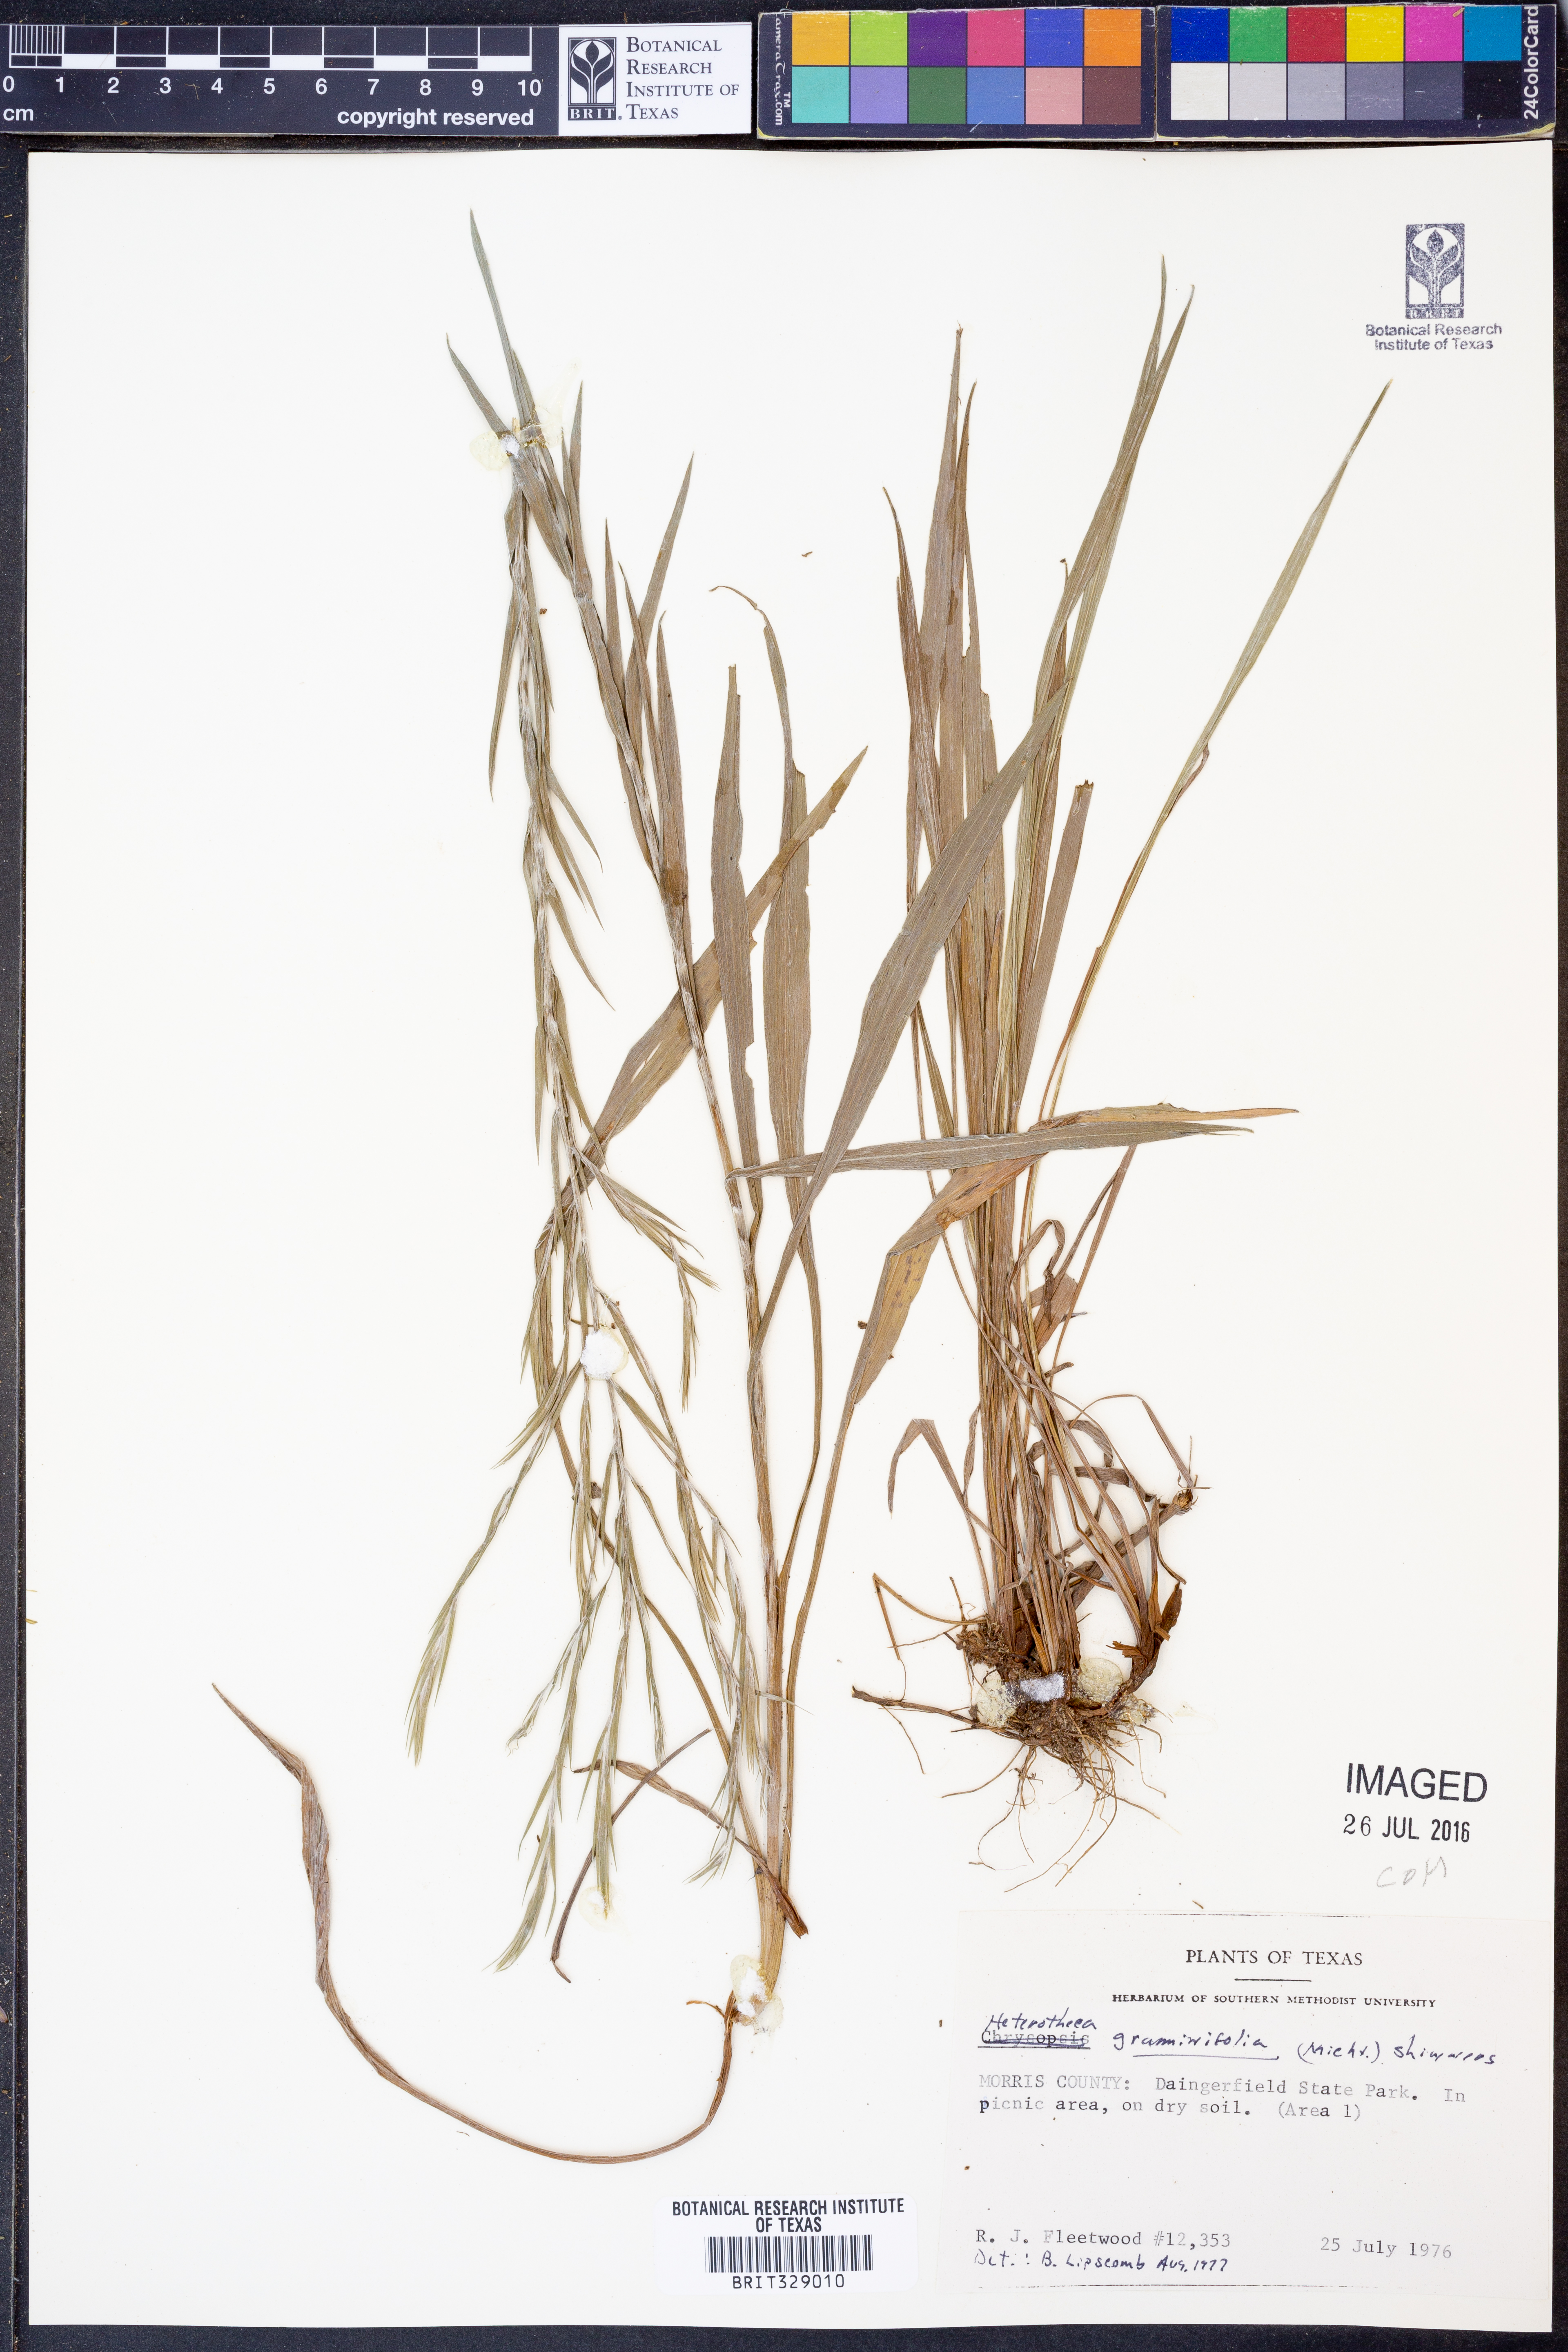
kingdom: Plantae
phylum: Tracheophyta
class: Magnoliopsida
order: Asterales
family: Asteraceae
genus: Pityopsis
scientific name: Pityopsis graminifolia
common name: Grass-leaf golden-aster
